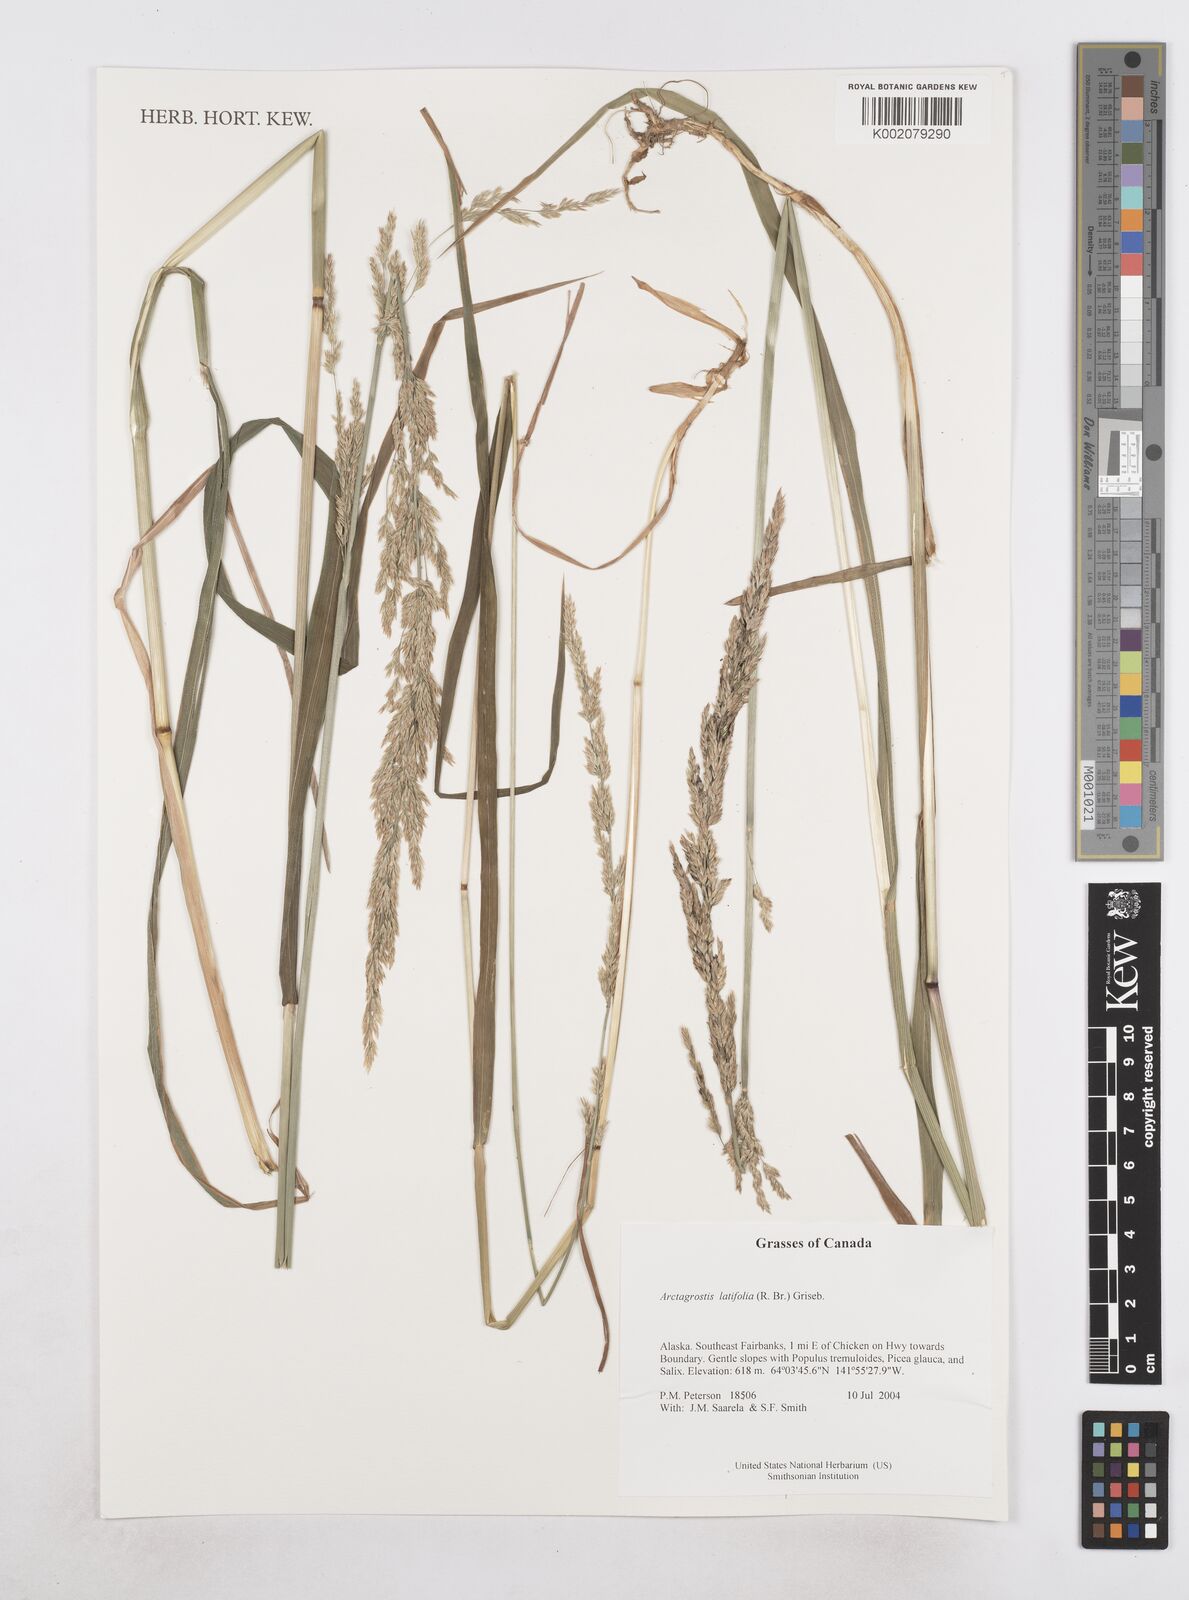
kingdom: Plantae
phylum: Tracheophyta
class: Liliopsida
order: Poales
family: Poaceae
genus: Arctagrostis
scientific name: Arctagrostis latifolia
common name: Arctic grass
